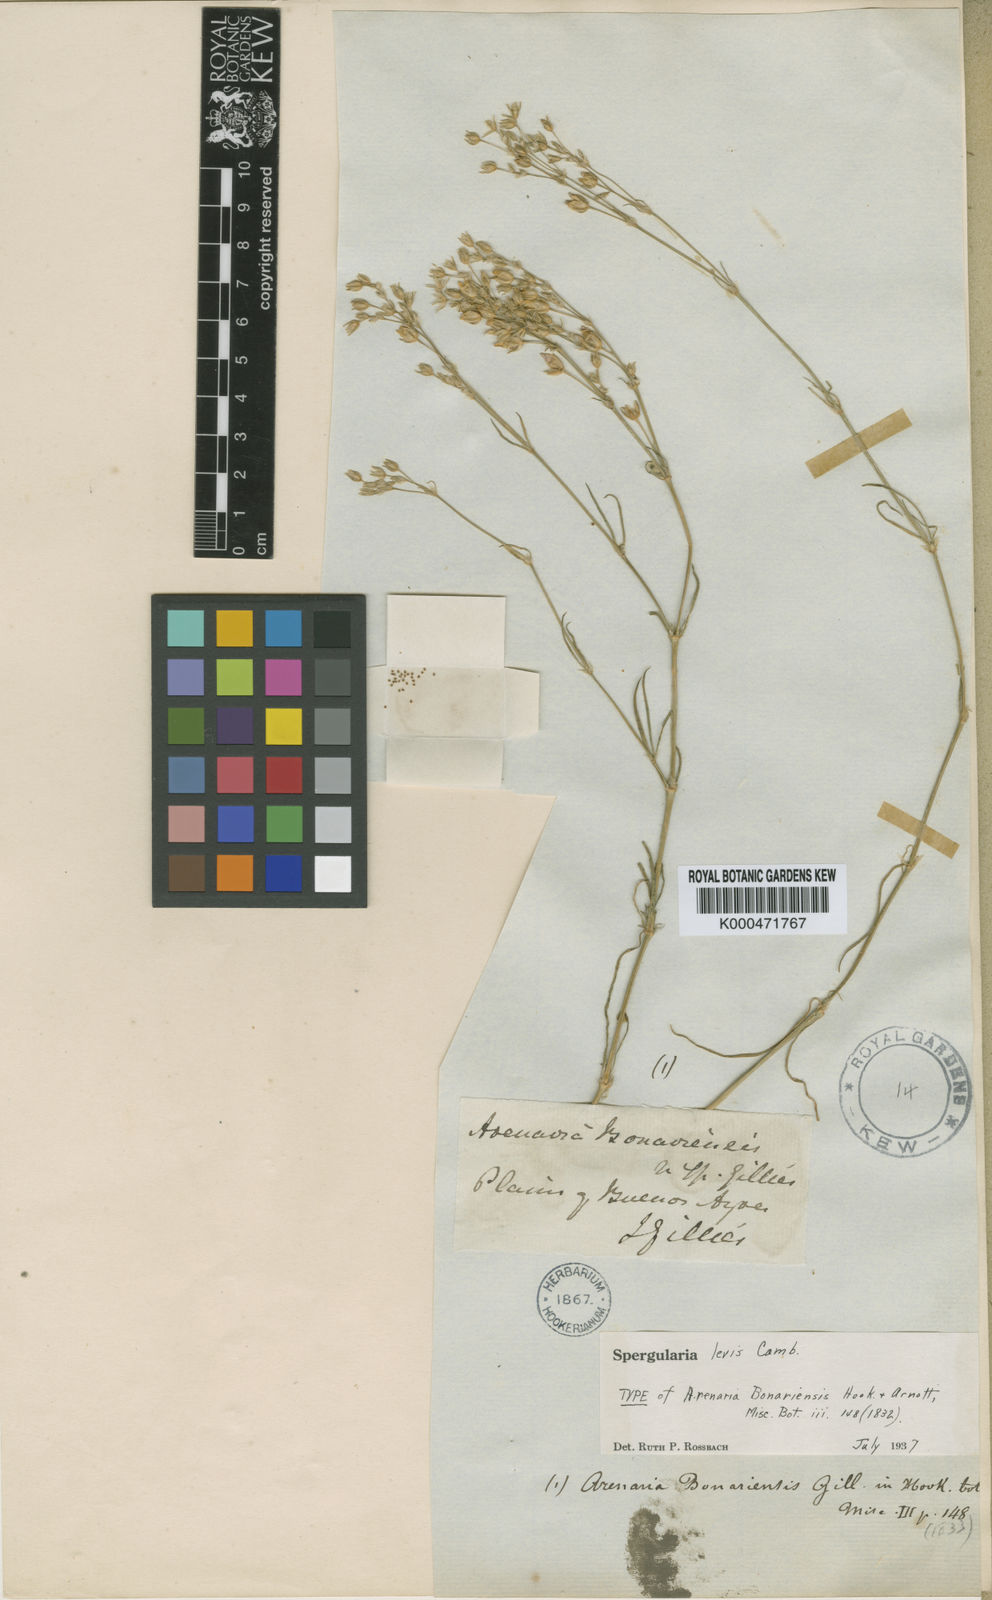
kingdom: Plantae
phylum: Tracheophyta
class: Magnoliopsida
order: Caryophyllales
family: Caryophyllaceae
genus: Spergularia
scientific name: Spergularia
